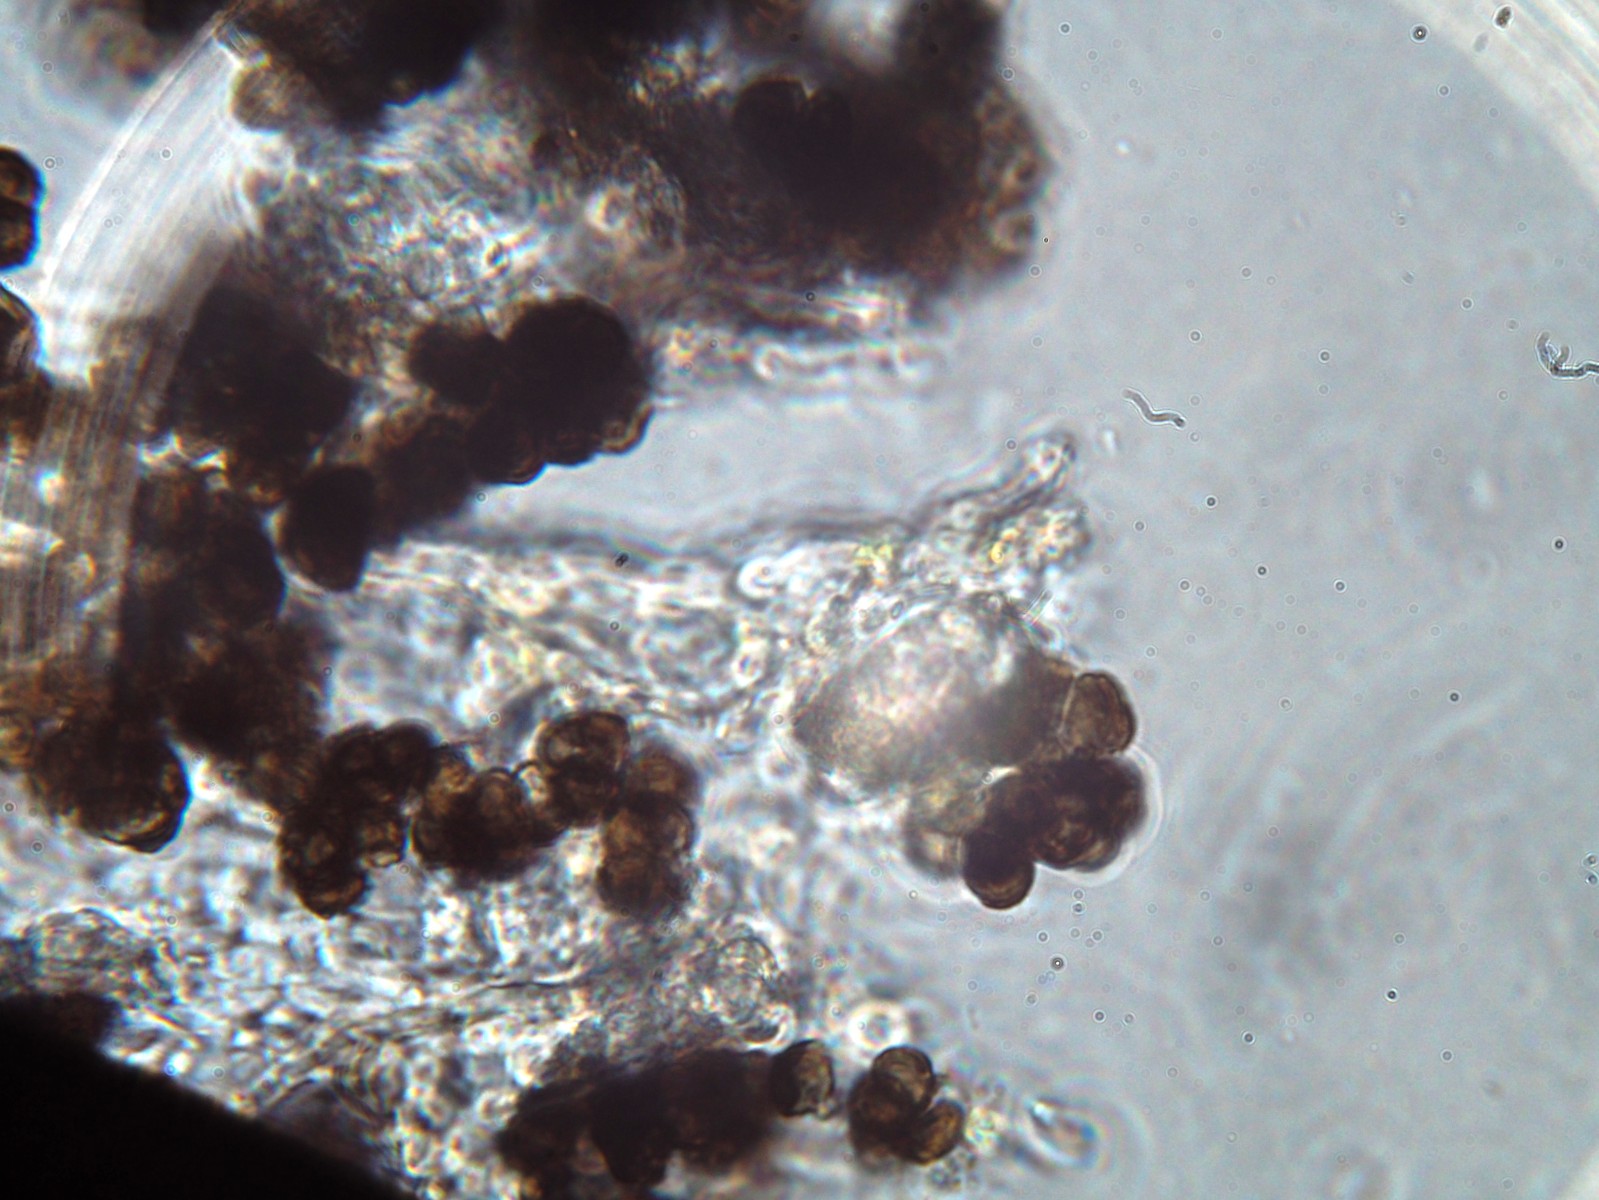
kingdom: Fungi
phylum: Ascomycota
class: Leotiomycetes
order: Helotiales
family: Mollisiaceae
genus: Trimmatostroma
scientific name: Trimmatostroma betulinum
